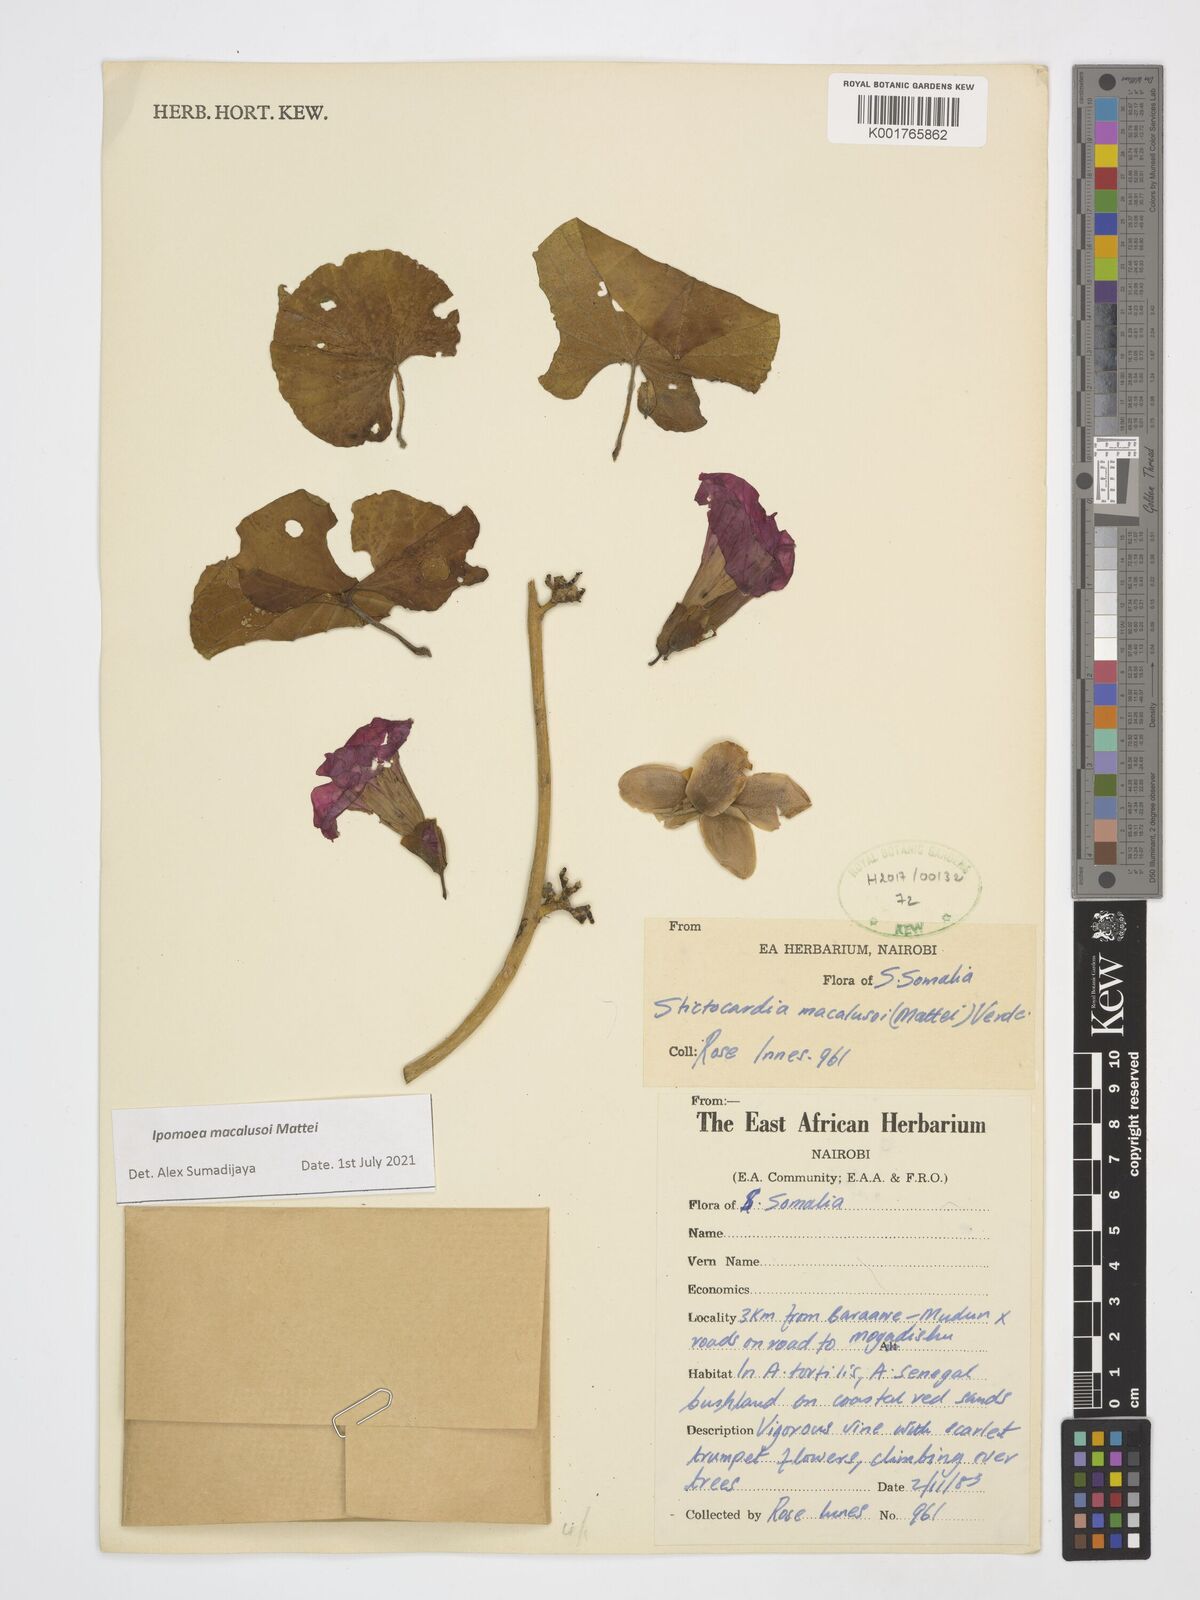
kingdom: Plantae
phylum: Tracheophyta
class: Magnoliopsida
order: Solanales
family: Convolvulaceae
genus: Stictocardia
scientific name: Stictocardia macalusoi
